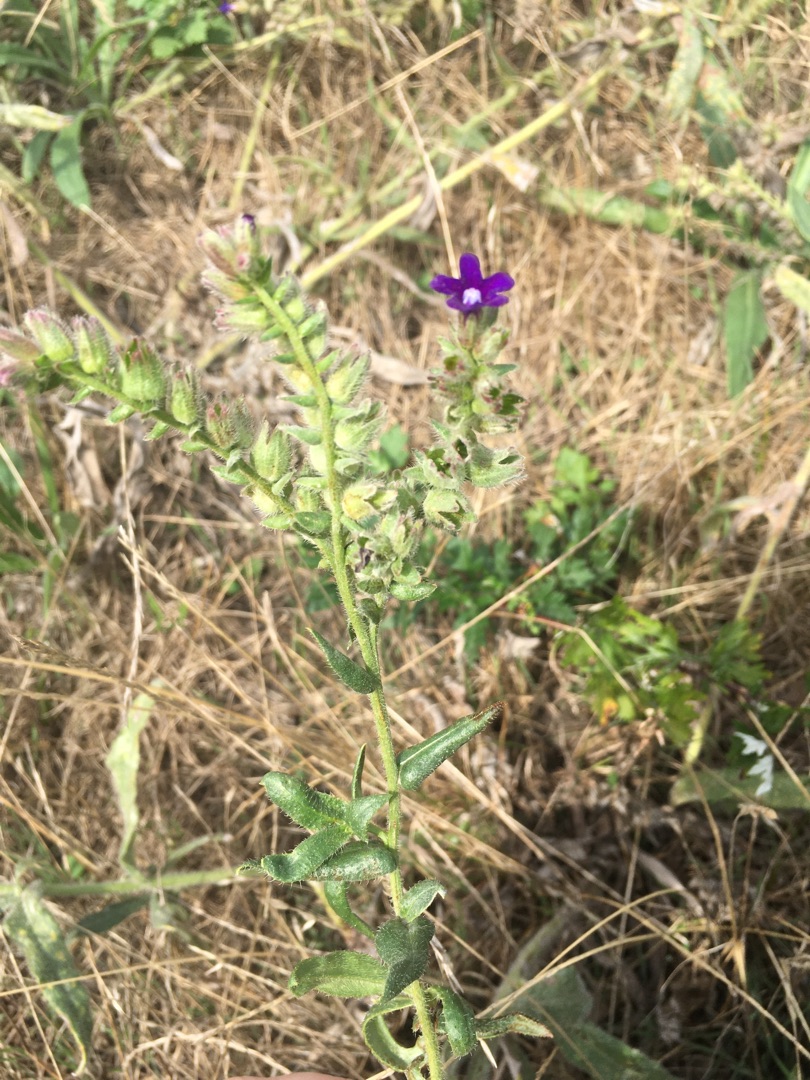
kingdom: Plantae
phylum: Tracheophyta
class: Magnoliopsida
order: Boraginales
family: Boraginaceae
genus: Anchusa
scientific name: Anchusa officinalis
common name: Læge-oksetunge
